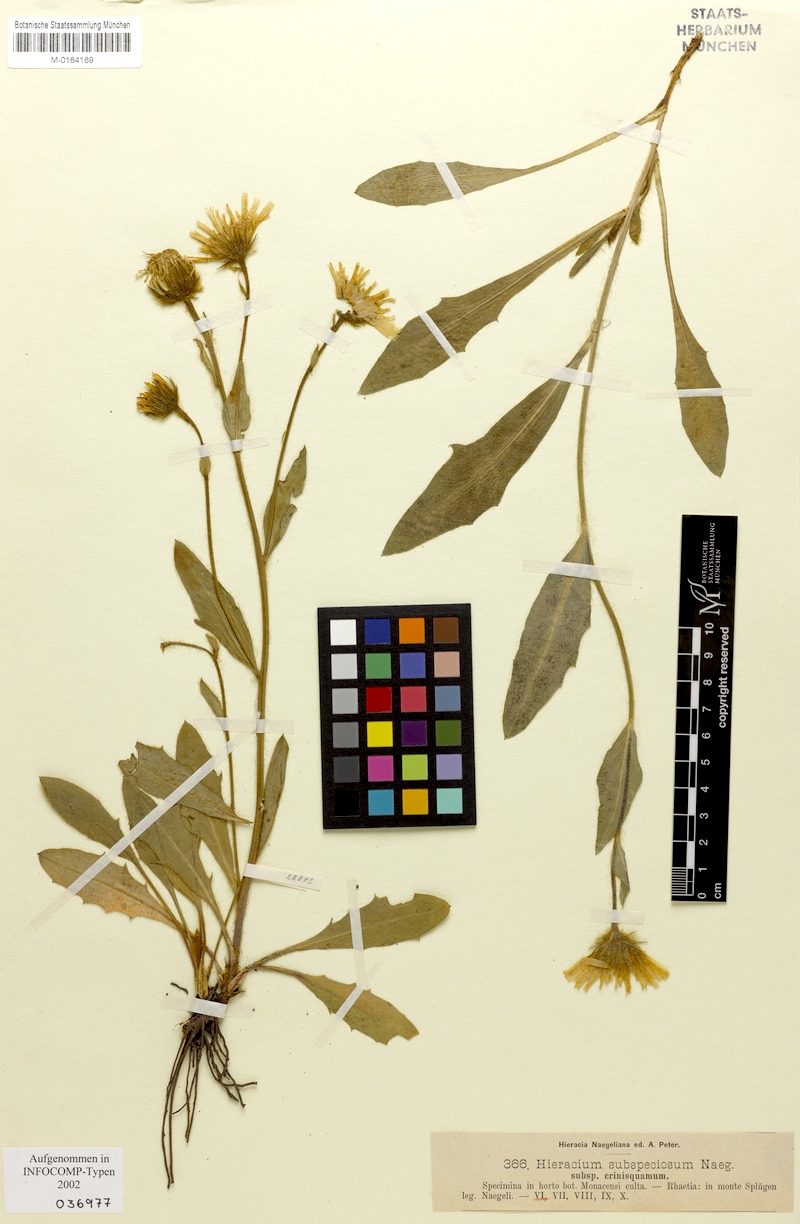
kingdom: Plantae
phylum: Tracheophyta
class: Magnoliopsida
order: Asterales
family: Asteraceae
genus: Hieracium
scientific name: Hieracium subspeciosum
